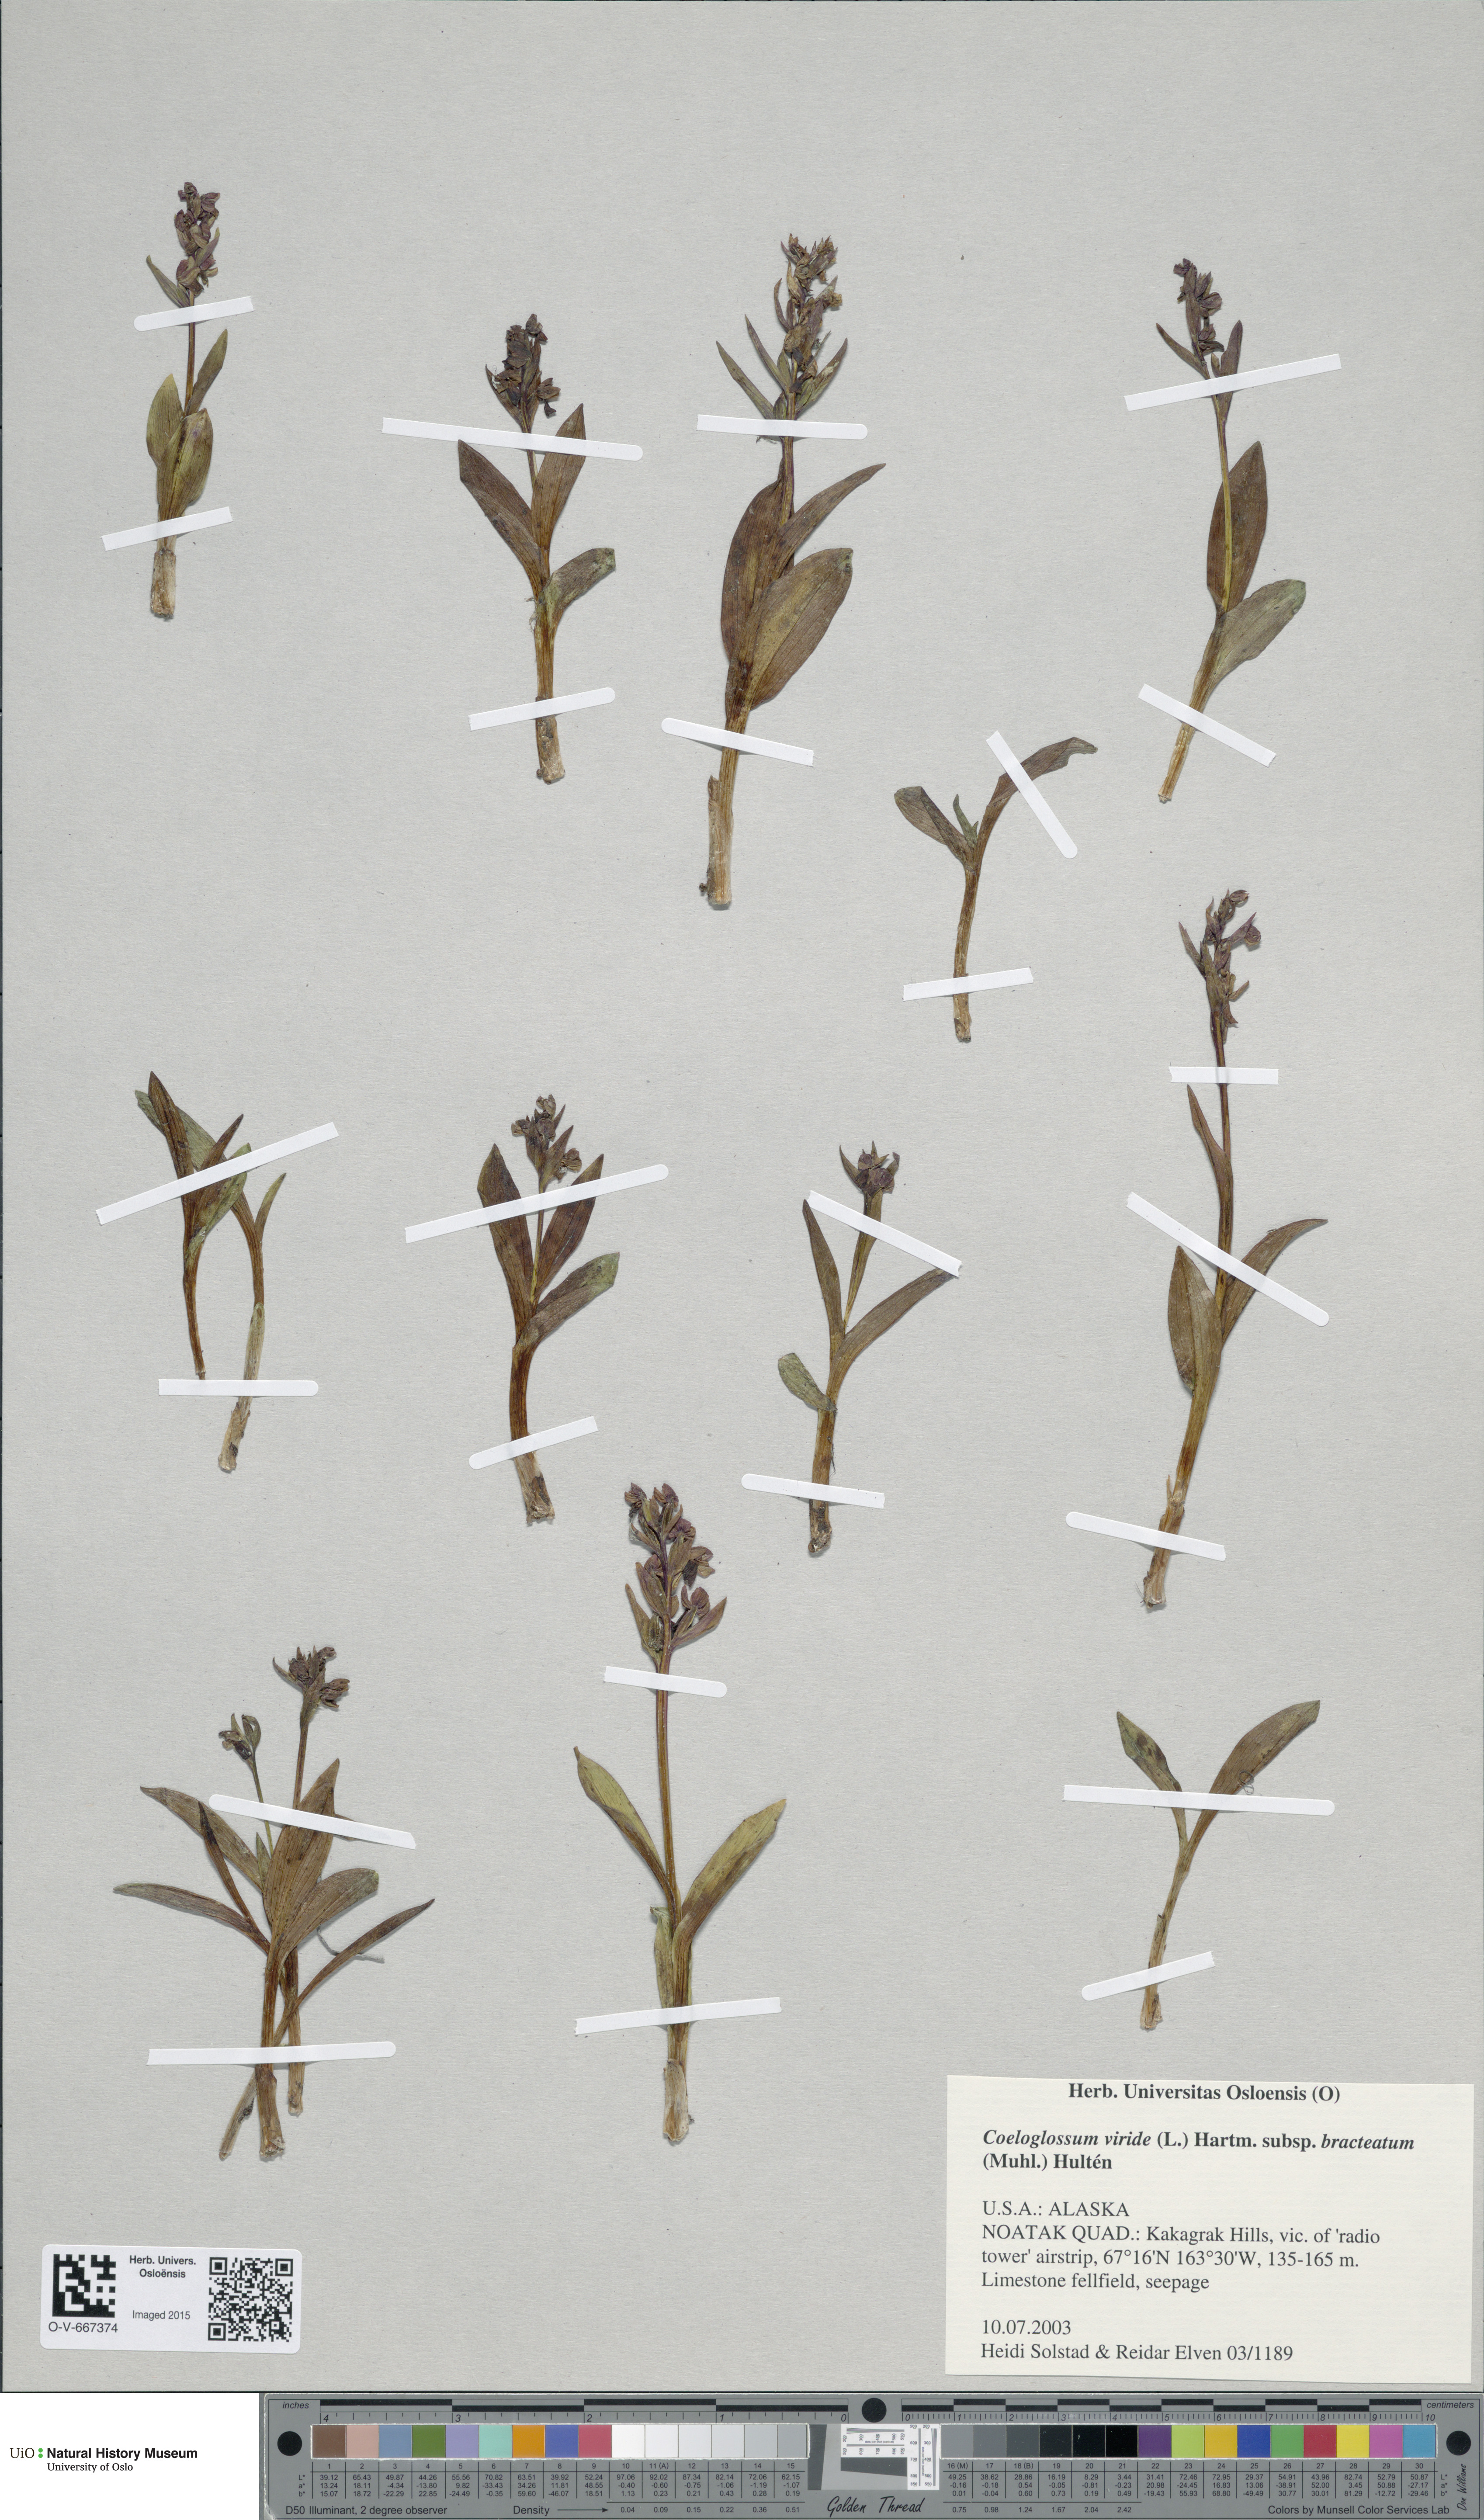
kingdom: Plantae
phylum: Tracheophyta
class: Liliopsida
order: Asparagales
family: Orchidaceae
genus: Dactylorhiza
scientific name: Dactylorhiza viridis
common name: Longbract frog orchid
